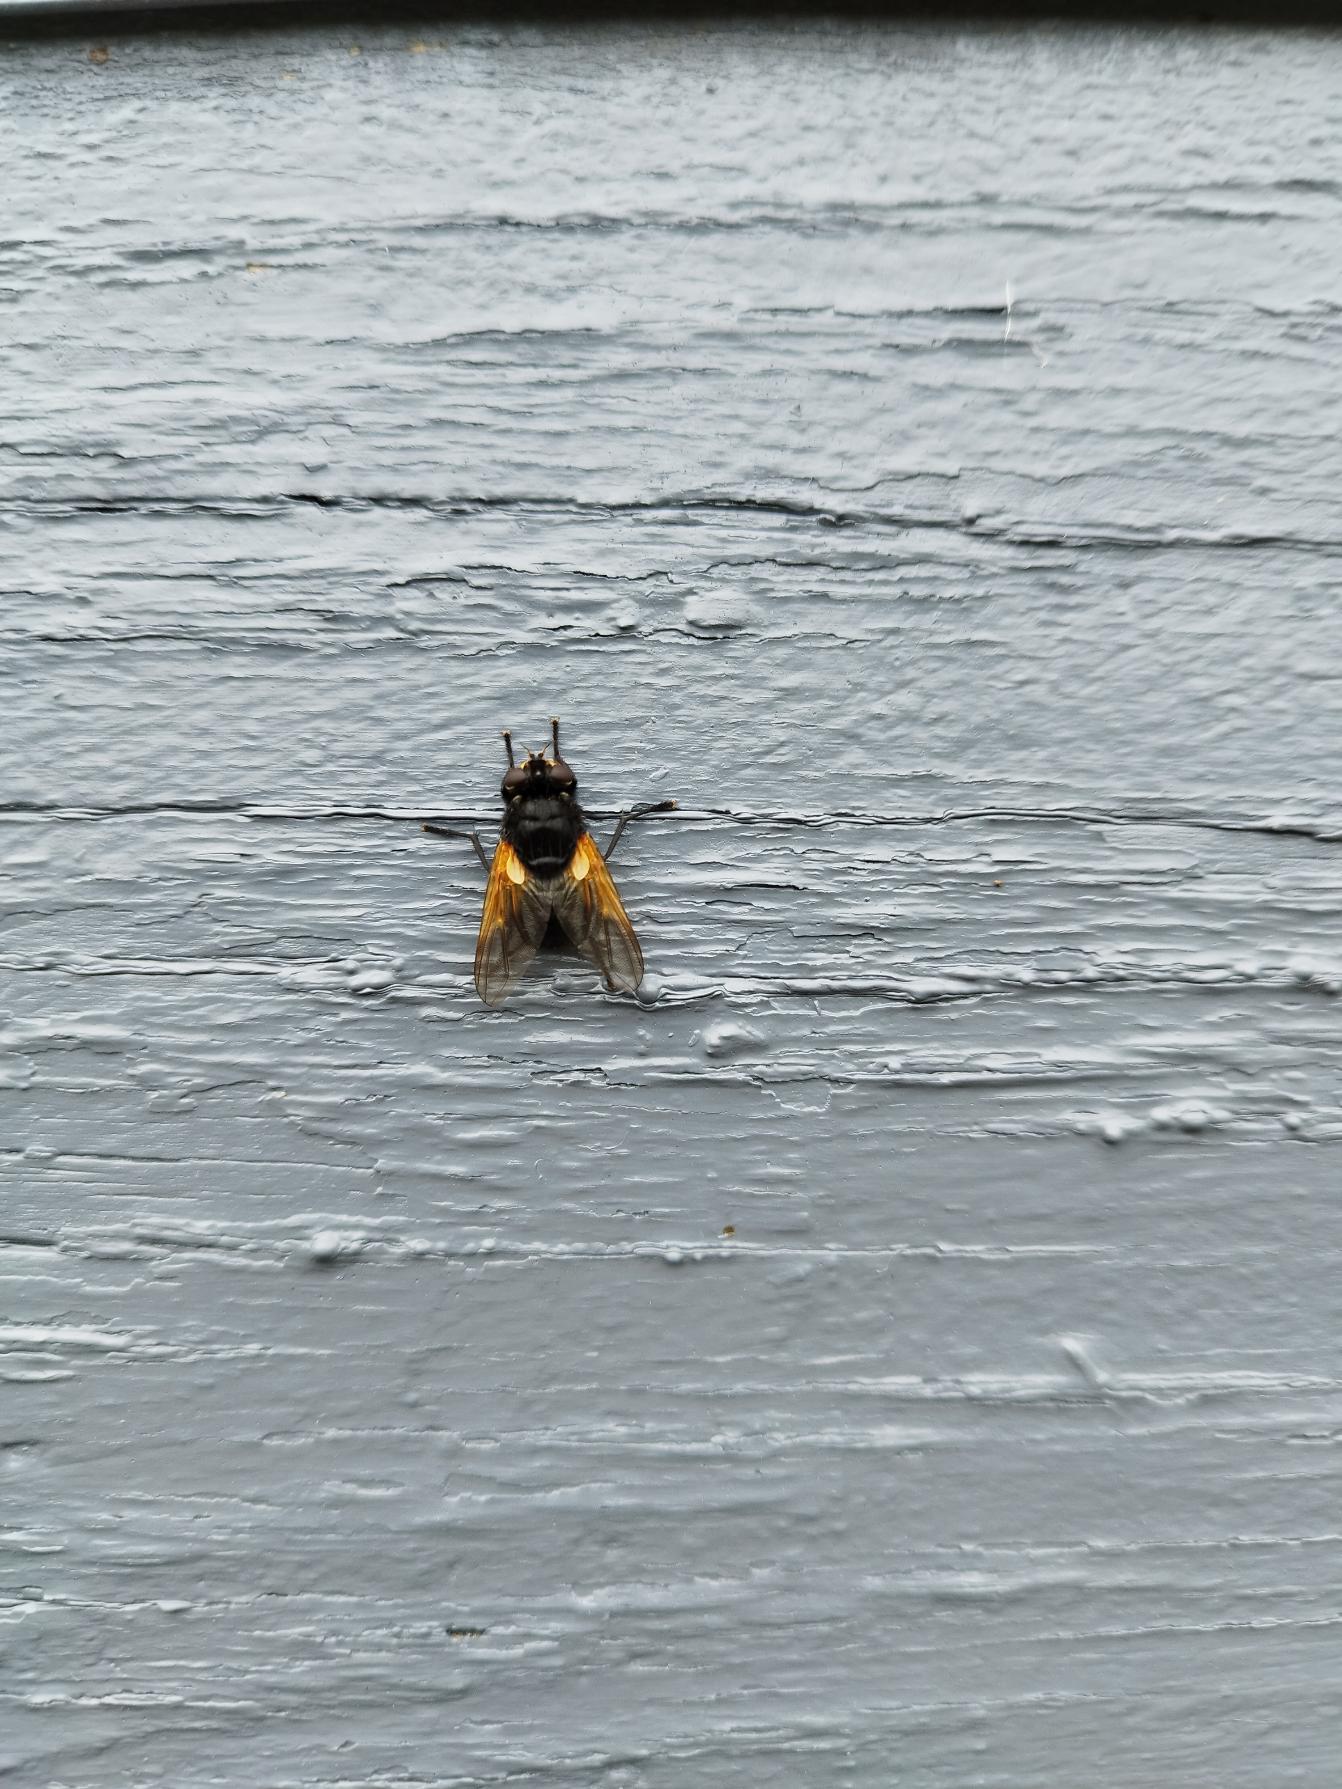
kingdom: Animalia
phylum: Arthropoda
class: Insecta
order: Diptera
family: Muscidae
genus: Mesembrina
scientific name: Mesembrina meridiana
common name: Gulvinget flue
